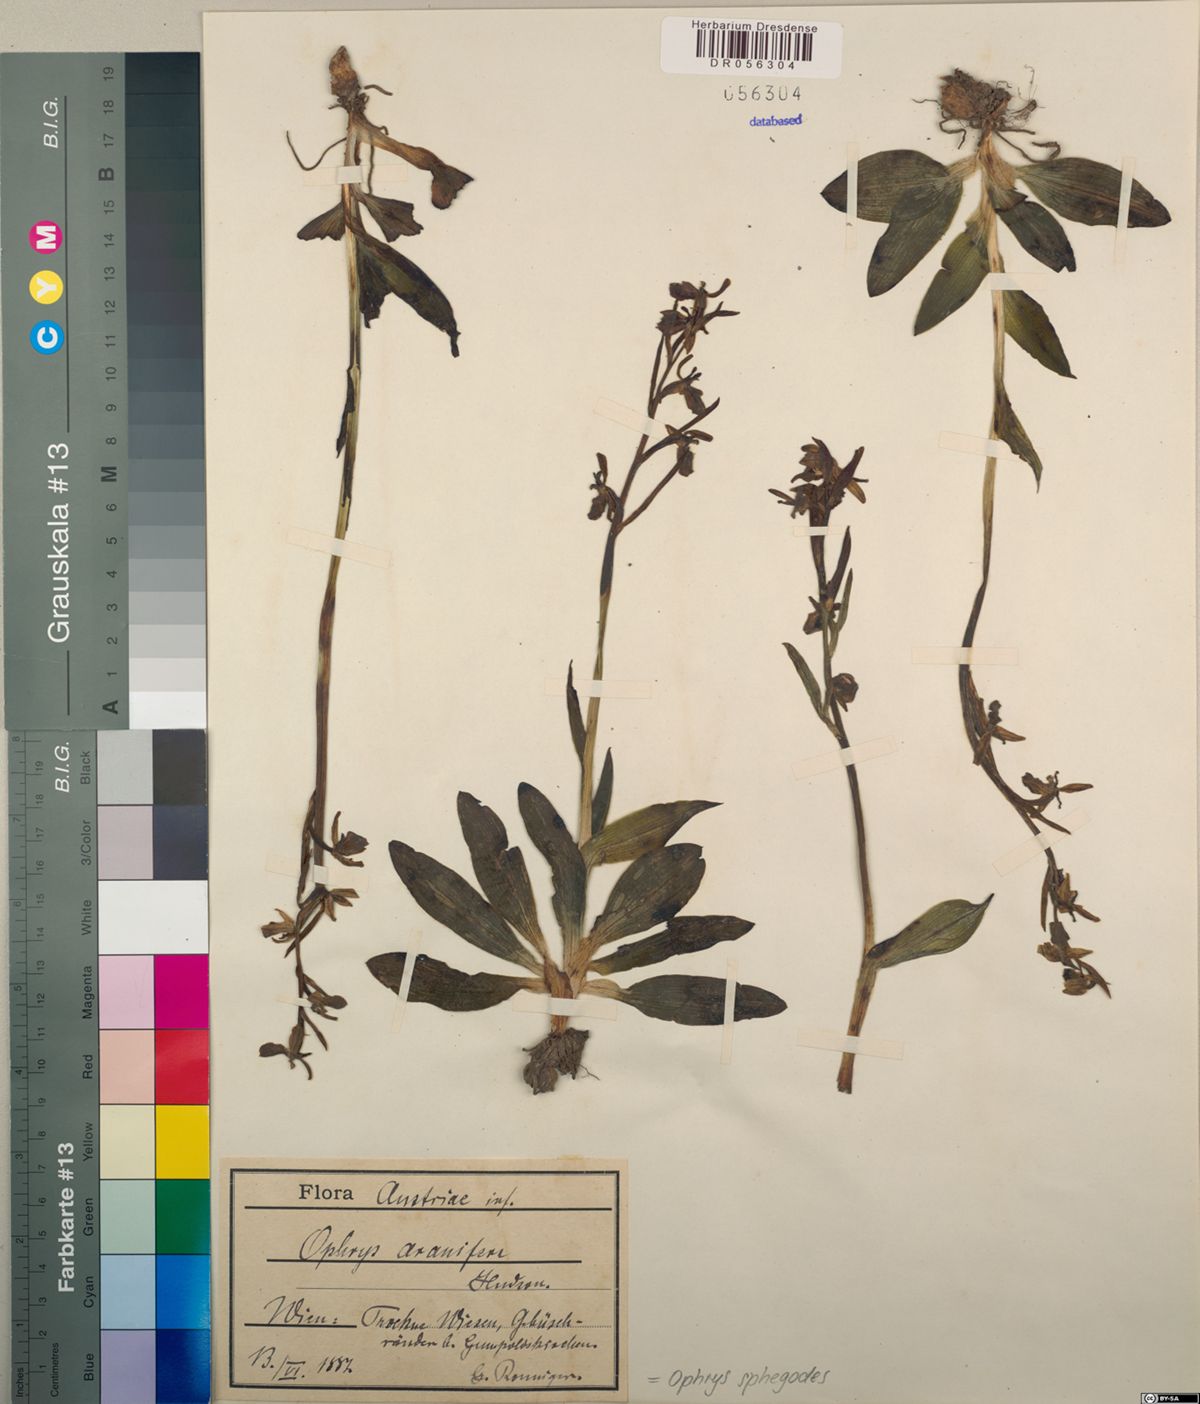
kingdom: Plantae
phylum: Tracheophyta
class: Liliopsida
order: Asparagales
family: Orchidaceae
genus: Ophrys
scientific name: Ophrys sphegodes
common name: Early spider-orchid
